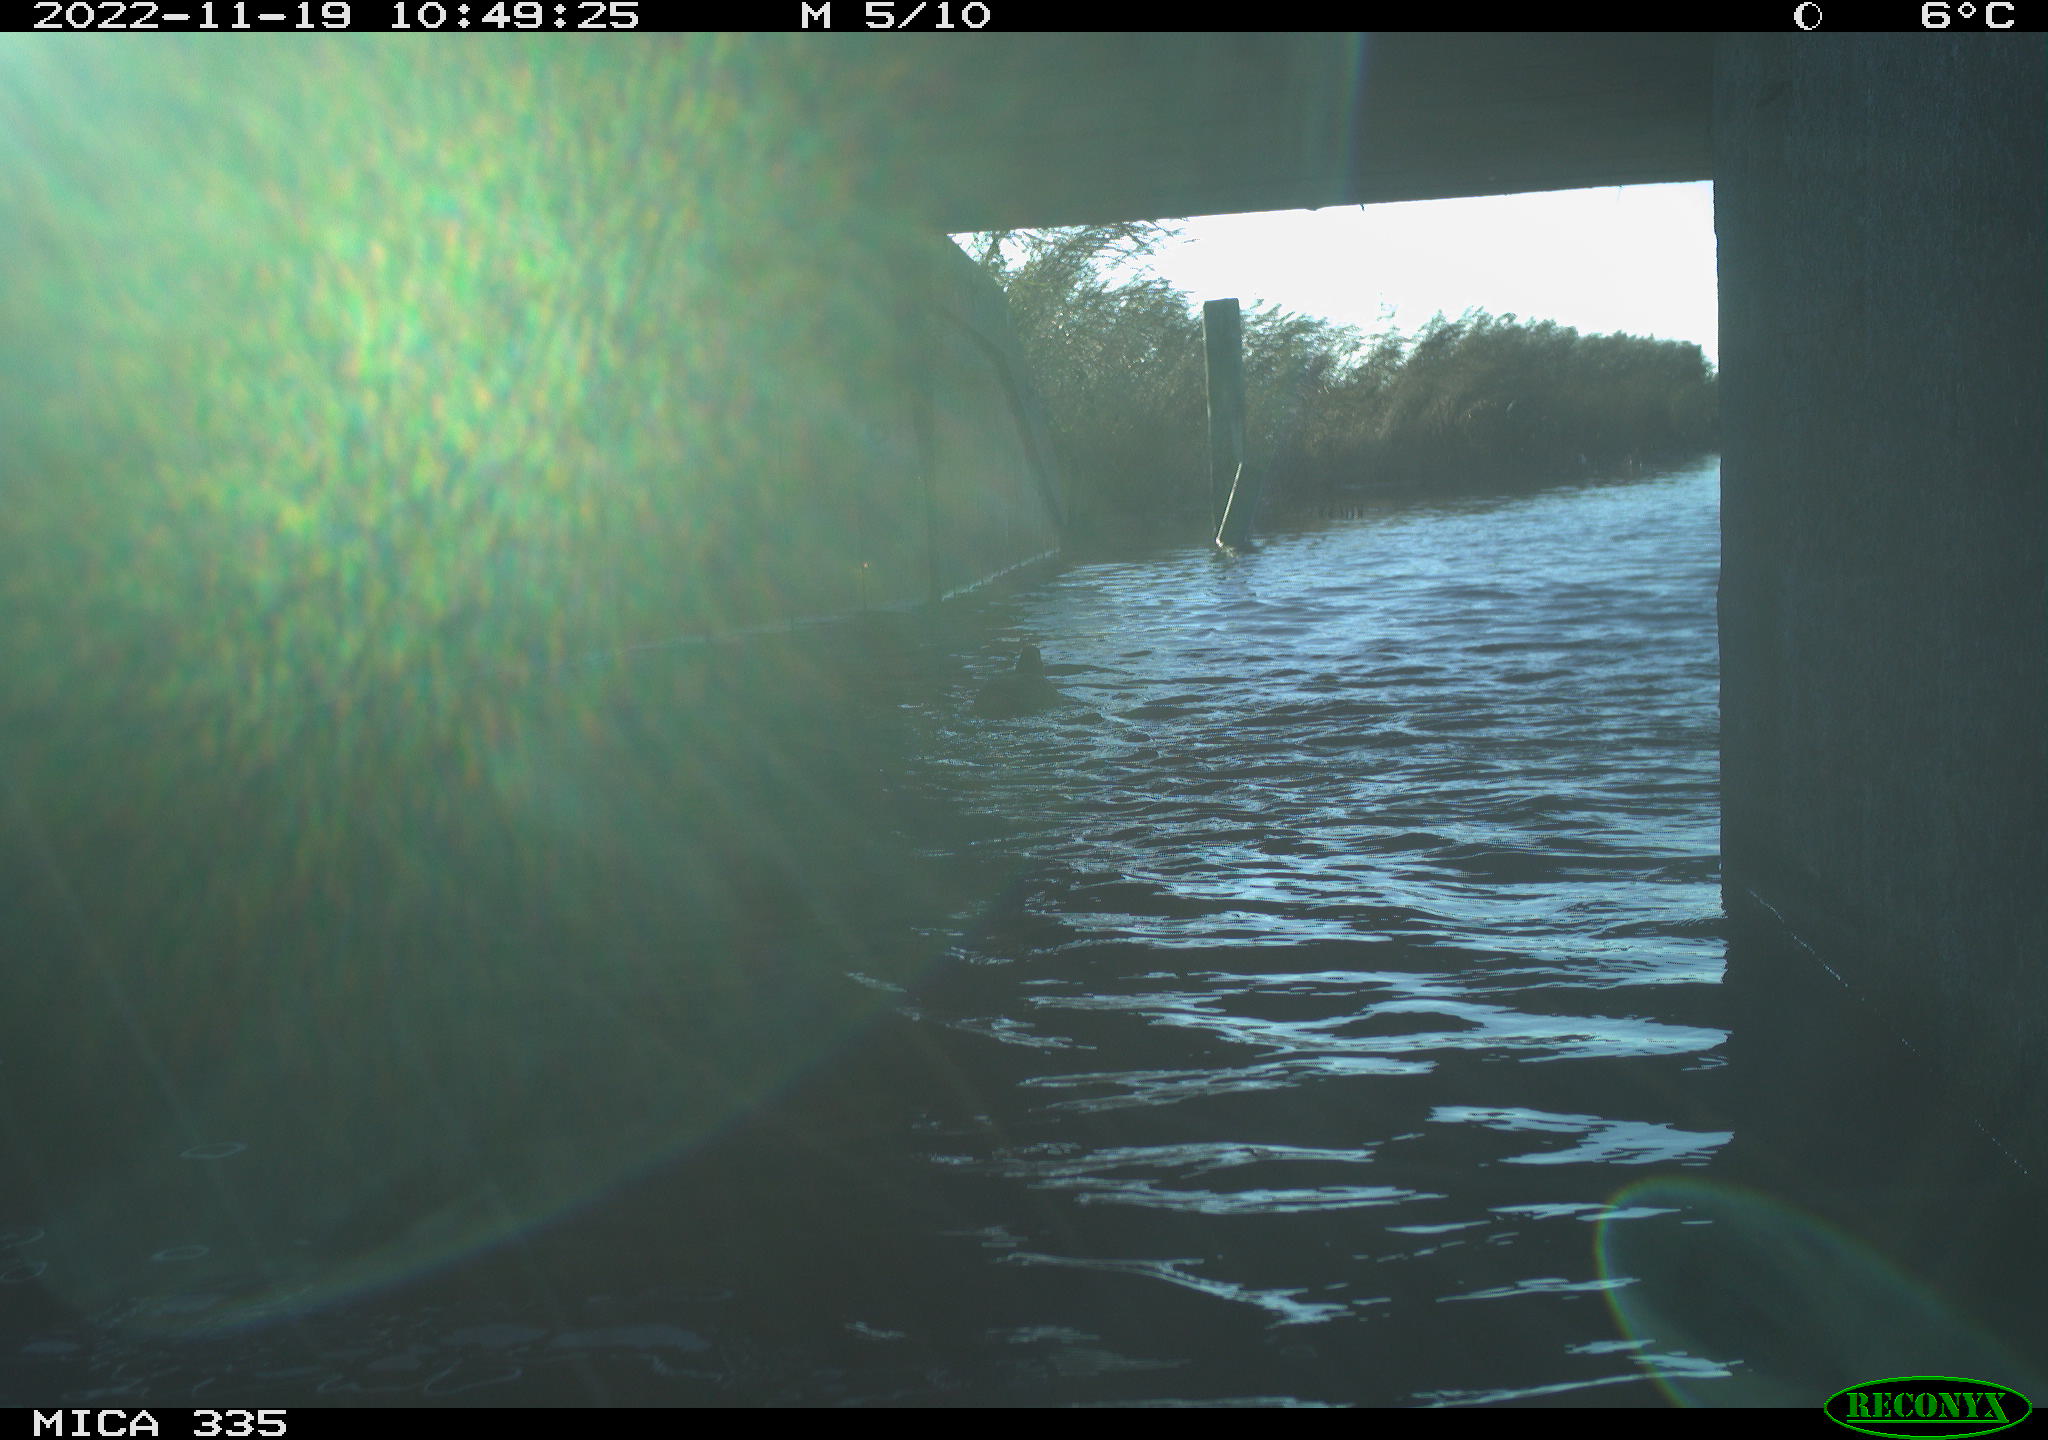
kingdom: Animalia
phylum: Chordata
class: Aves
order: Anseriformes
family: Anatidae
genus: Anas
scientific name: Anas
